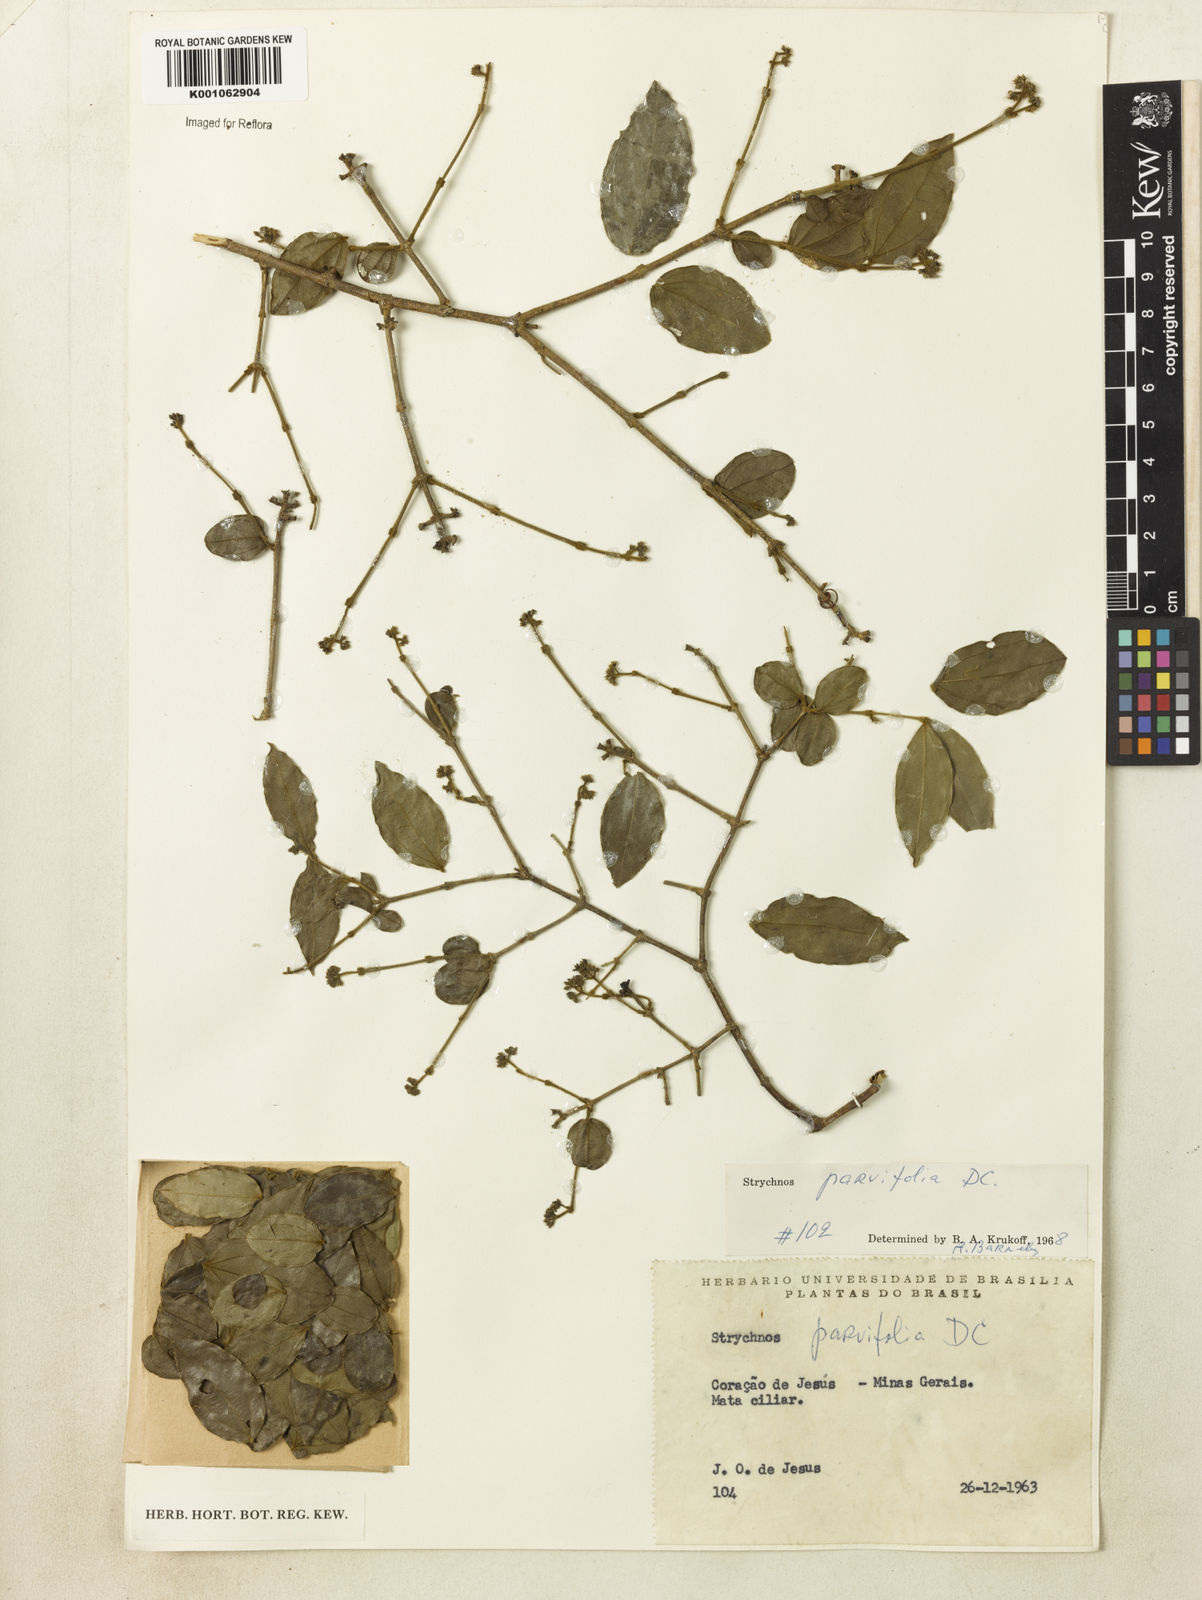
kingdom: Plantae
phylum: Tracheophyta
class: Magnoliopsida
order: Gentianales
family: Loganiaceae
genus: Strychnos
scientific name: Strychnos parvifolia
